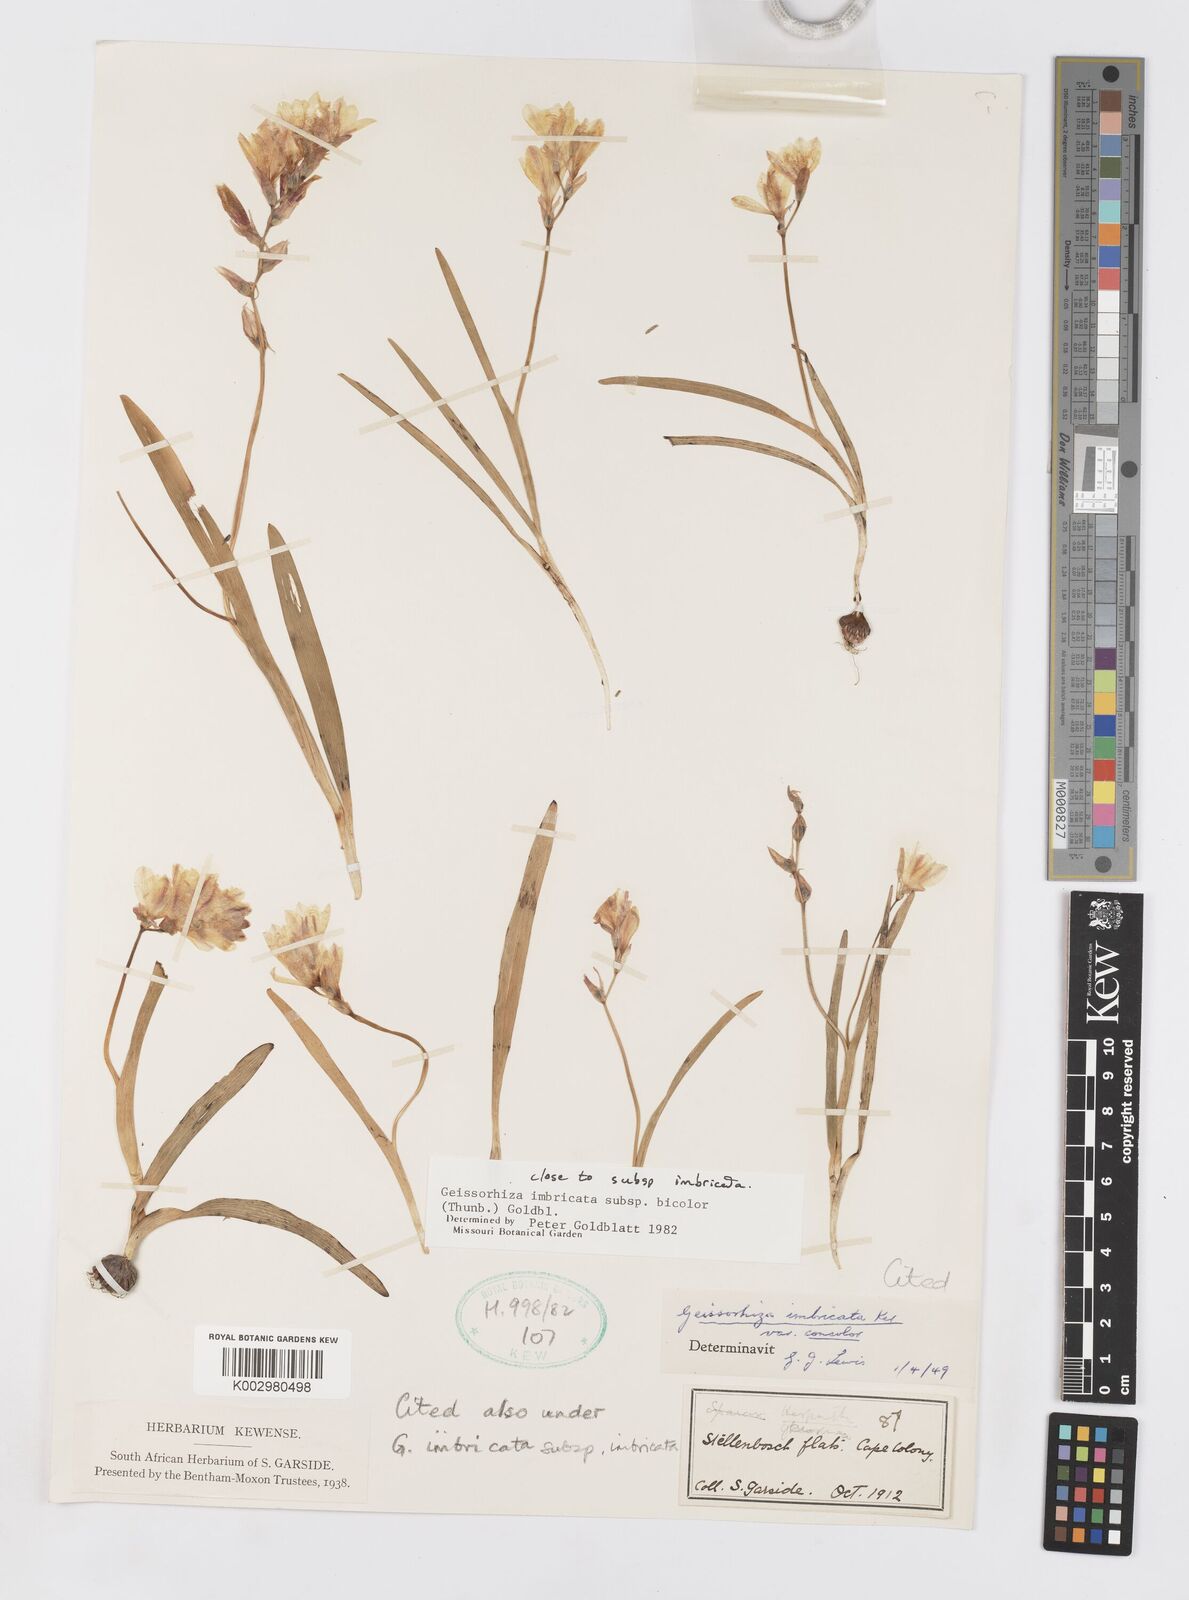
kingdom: Plantae
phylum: Tracheophyta
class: Liliopsida
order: Asparagales
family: Iridaceae
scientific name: Iridaceae
